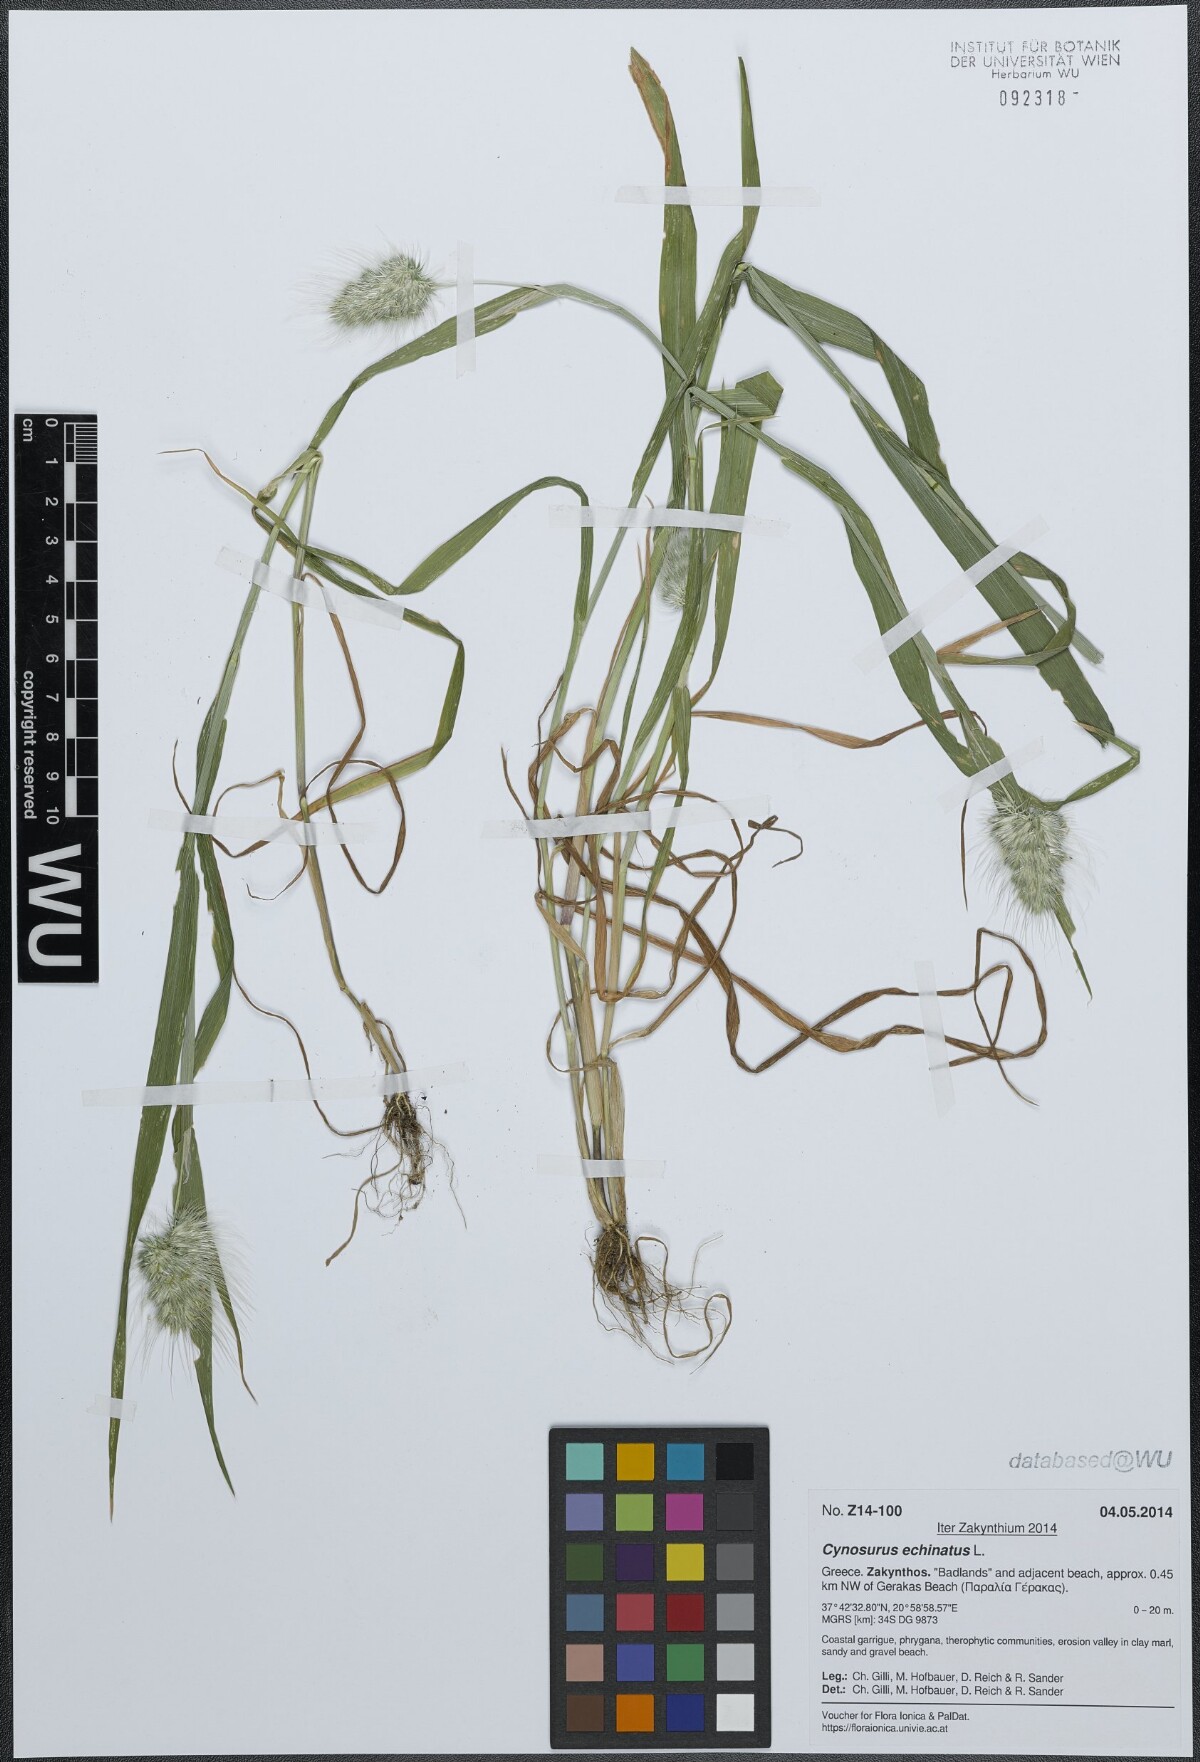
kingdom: Plantae
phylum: Tracheophyta
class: Liliopsida
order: Poales
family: Poaceae
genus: Cynosurus
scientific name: Cynosurus echinatus
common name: Rough dog's-tail
